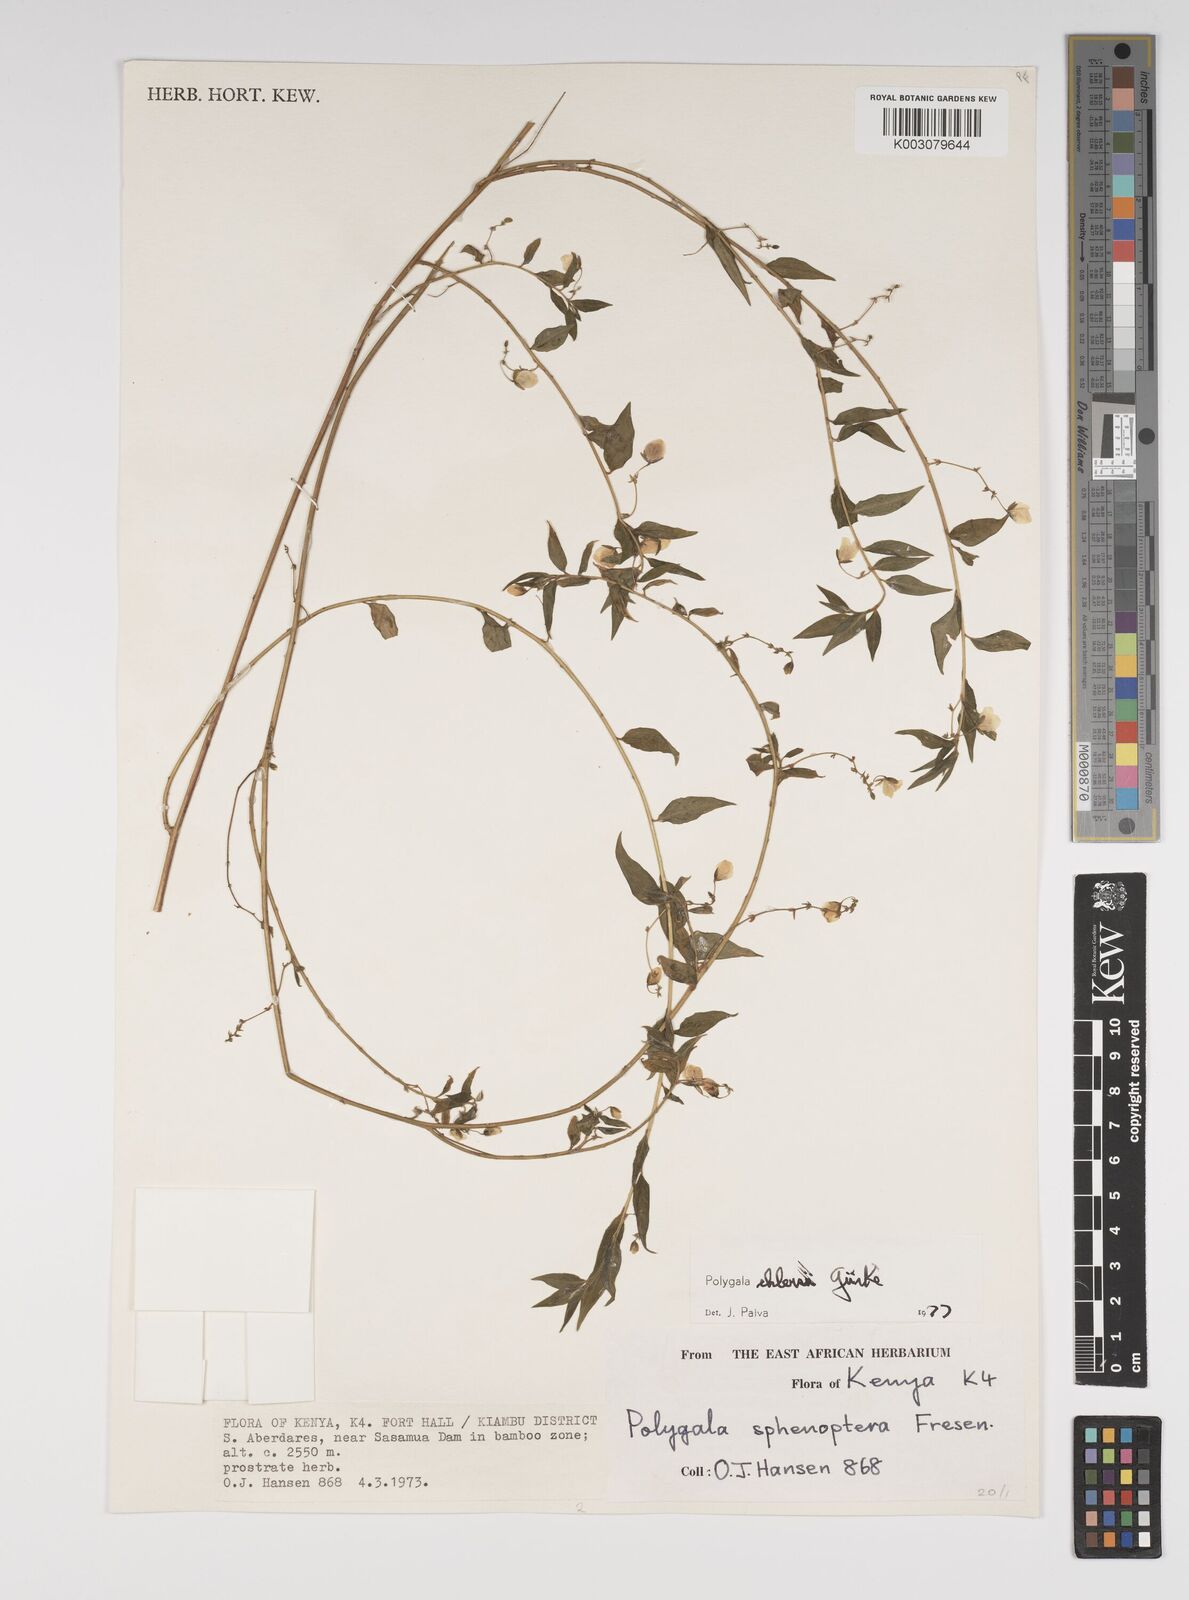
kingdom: Plantae
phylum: Tracheophyta
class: Magnoliopsida
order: Fabales
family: Polygalaceae
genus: Polygala
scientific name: Polygala ehlersii
